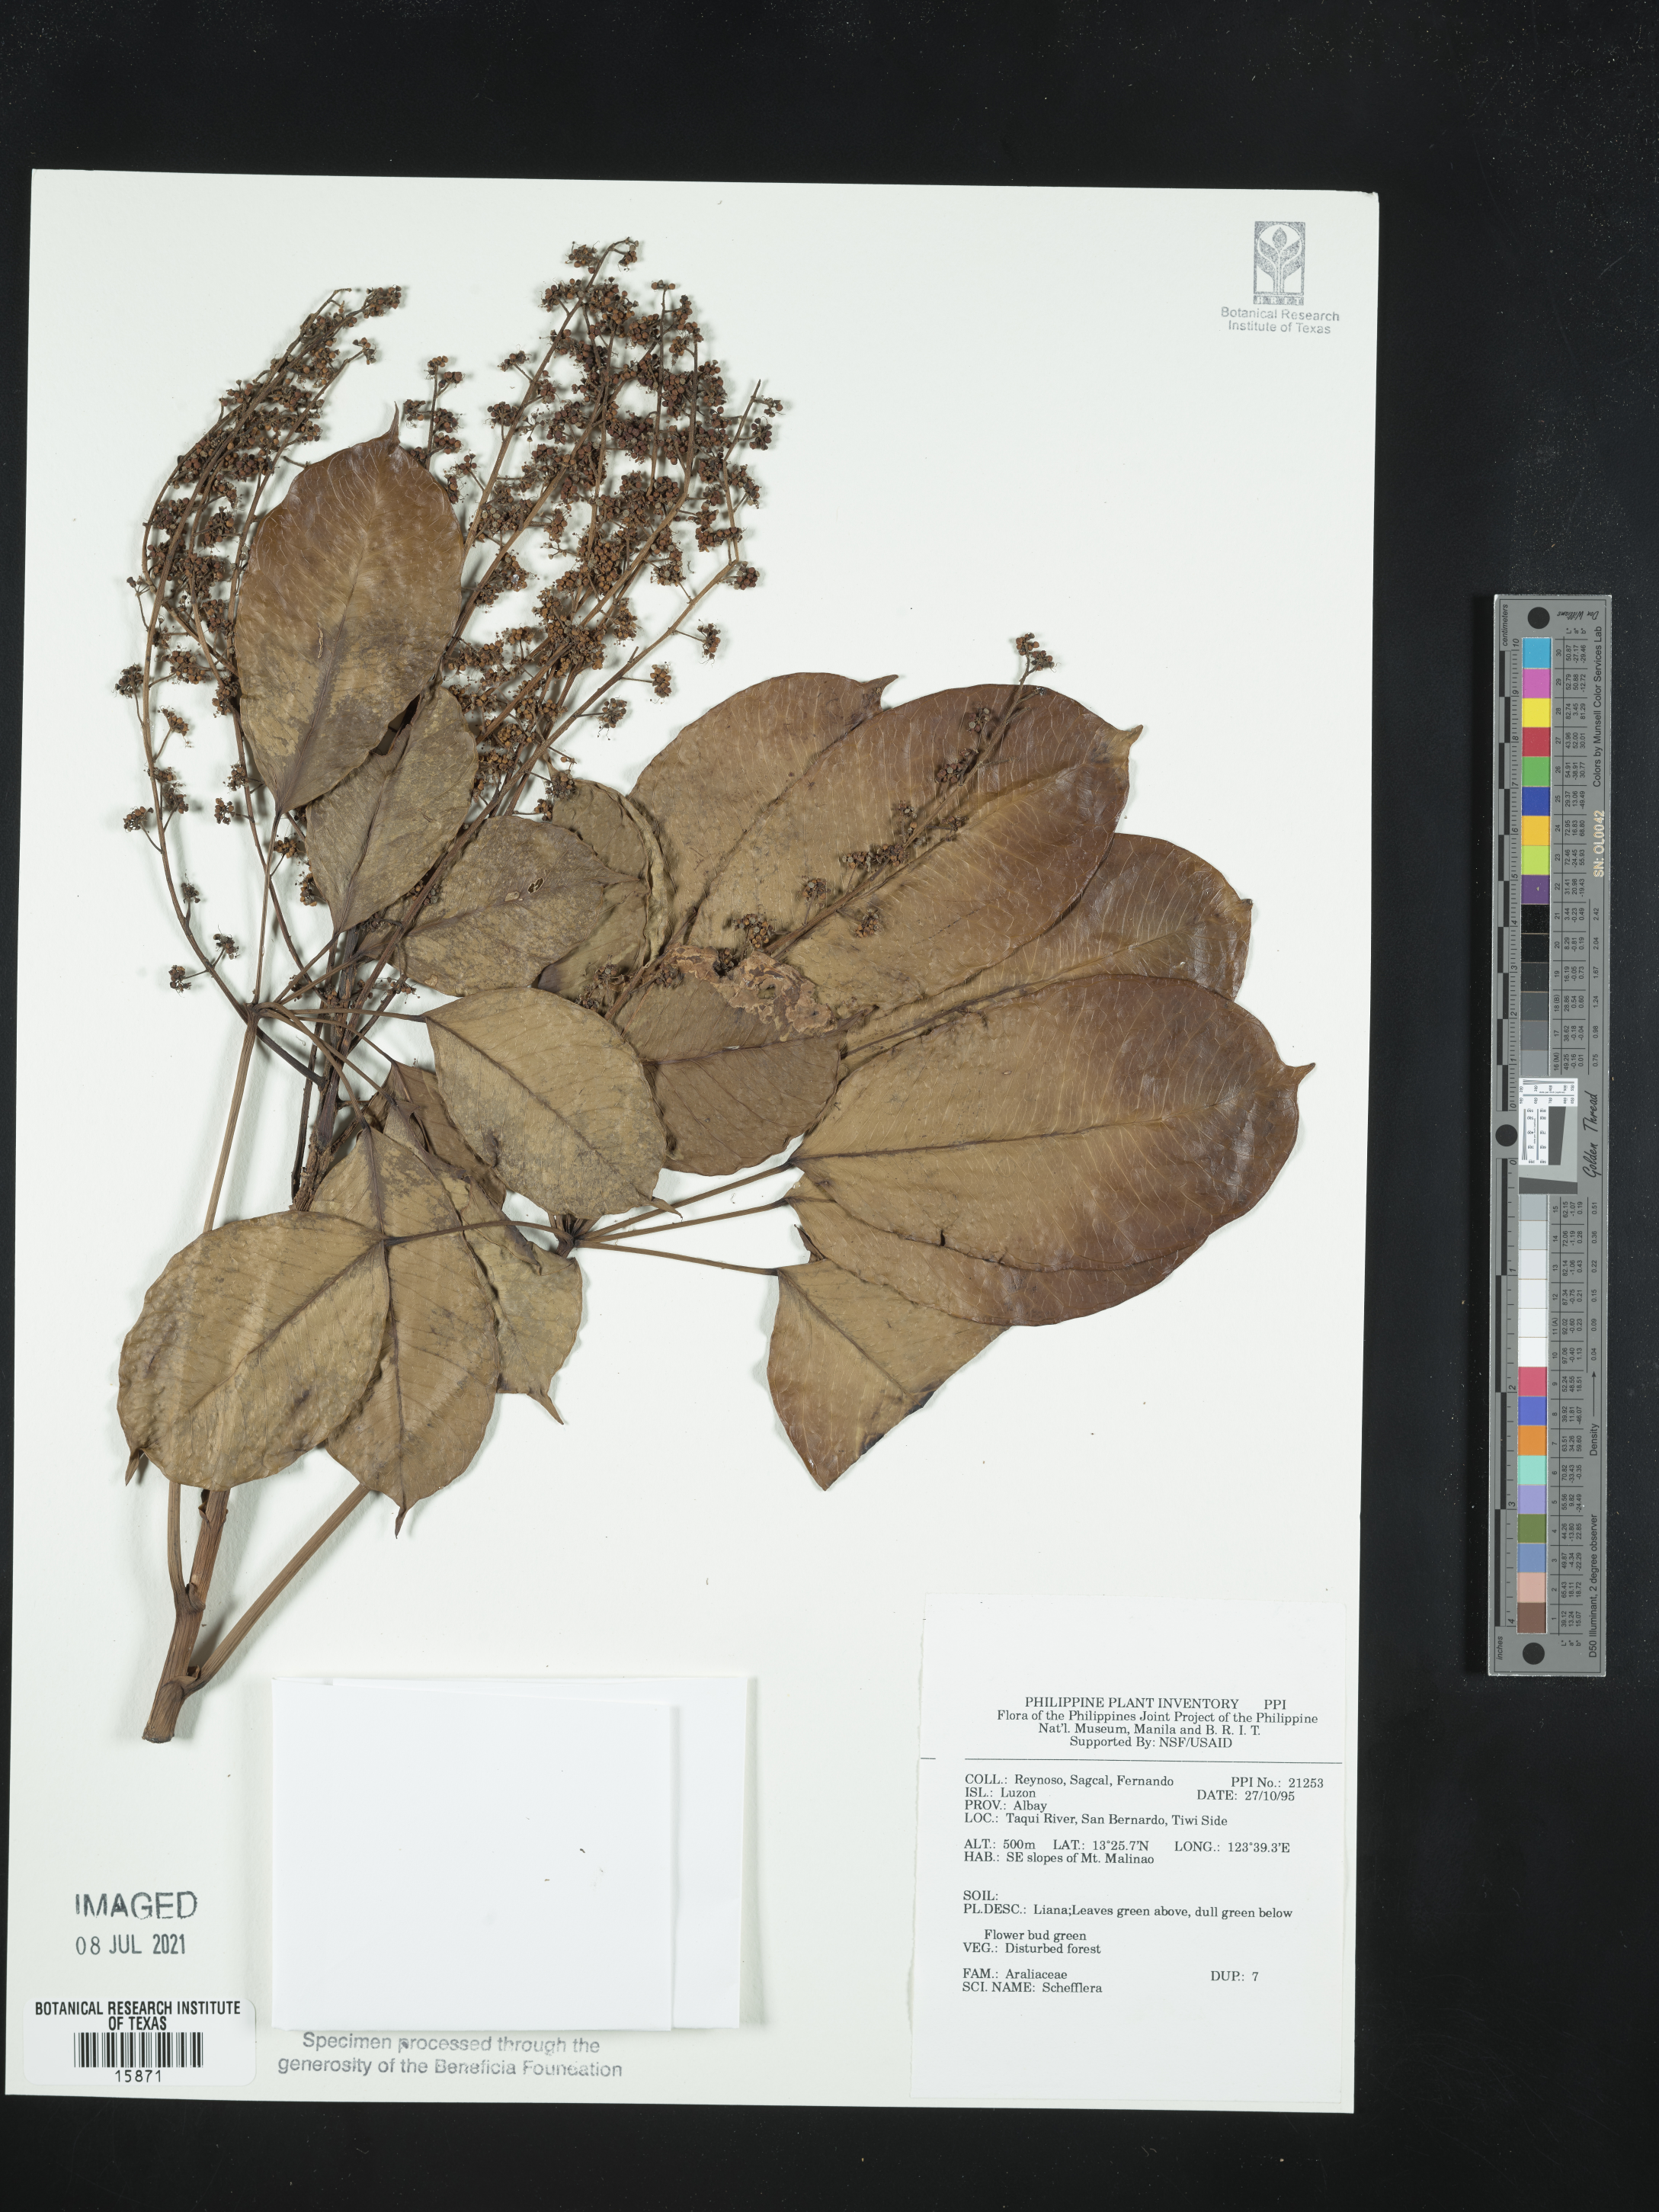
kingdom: Plantae
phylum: Tracheophyta
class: Magnoliopsida
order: Apiales
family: Araliaceae
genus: Schefflera
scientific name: Schefflera
